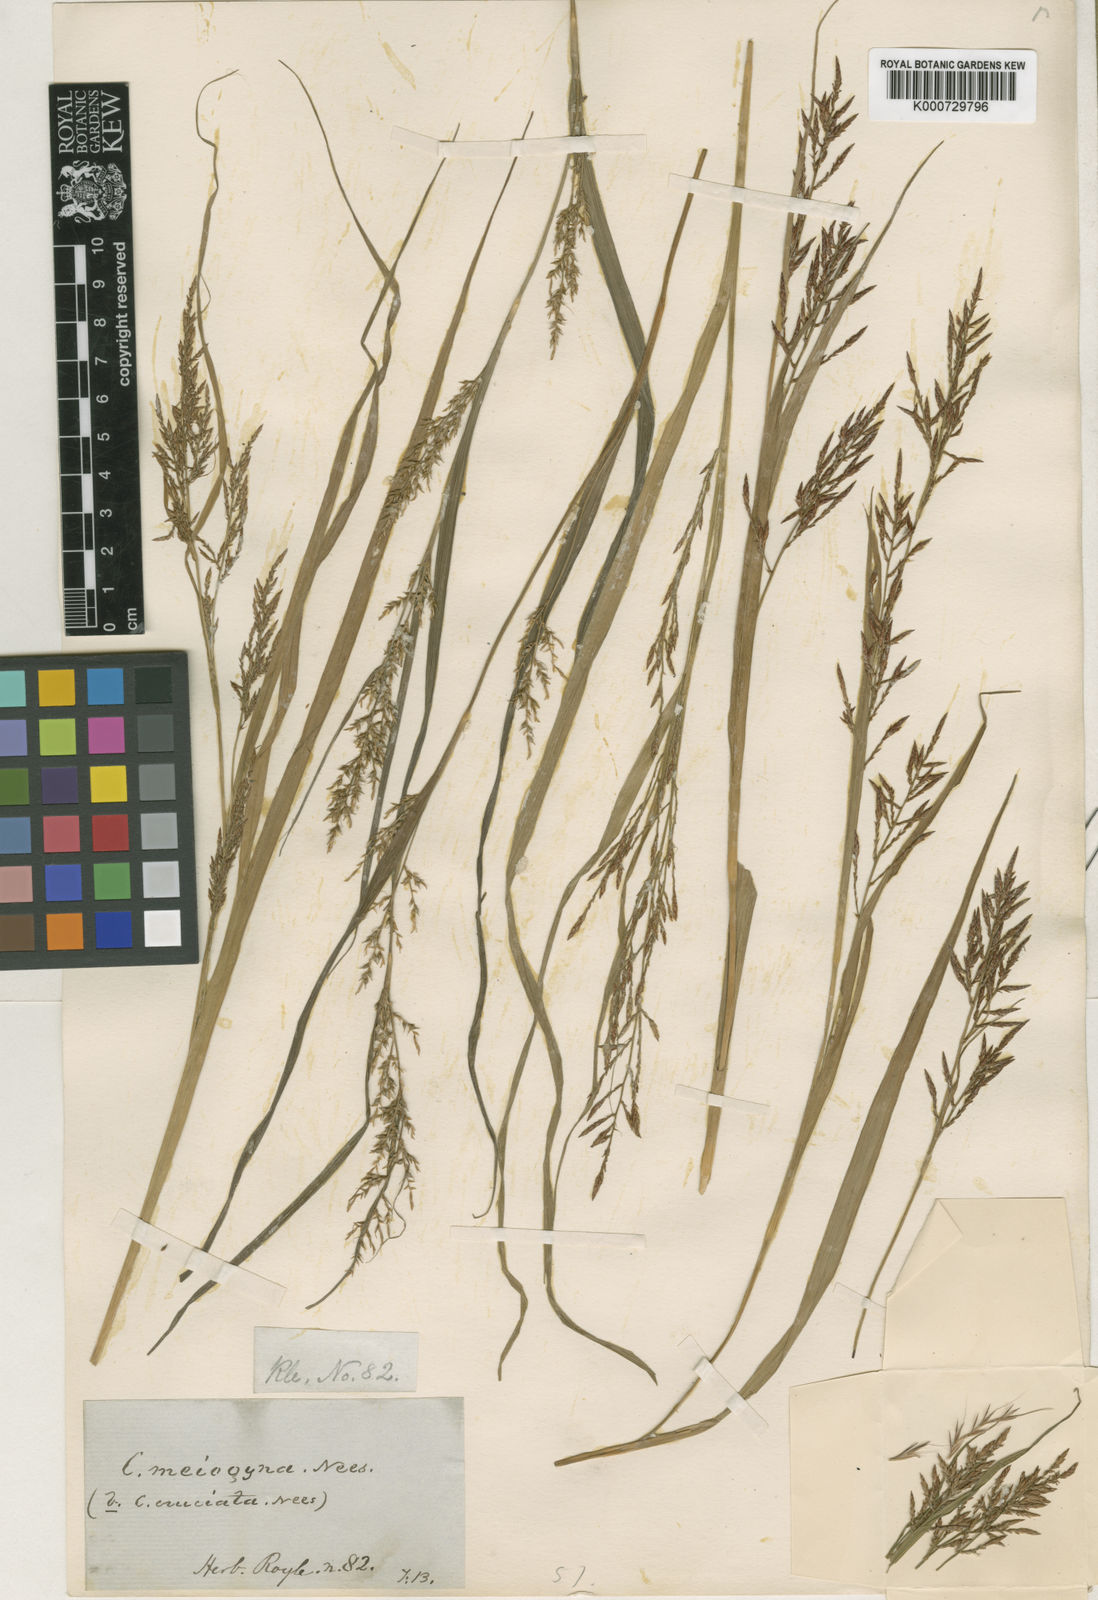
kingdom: Plantae
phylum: Tracheophyta
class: Liliopsida
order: Poales
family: Cyperaceae
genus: Carex
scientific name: Carex filicina
